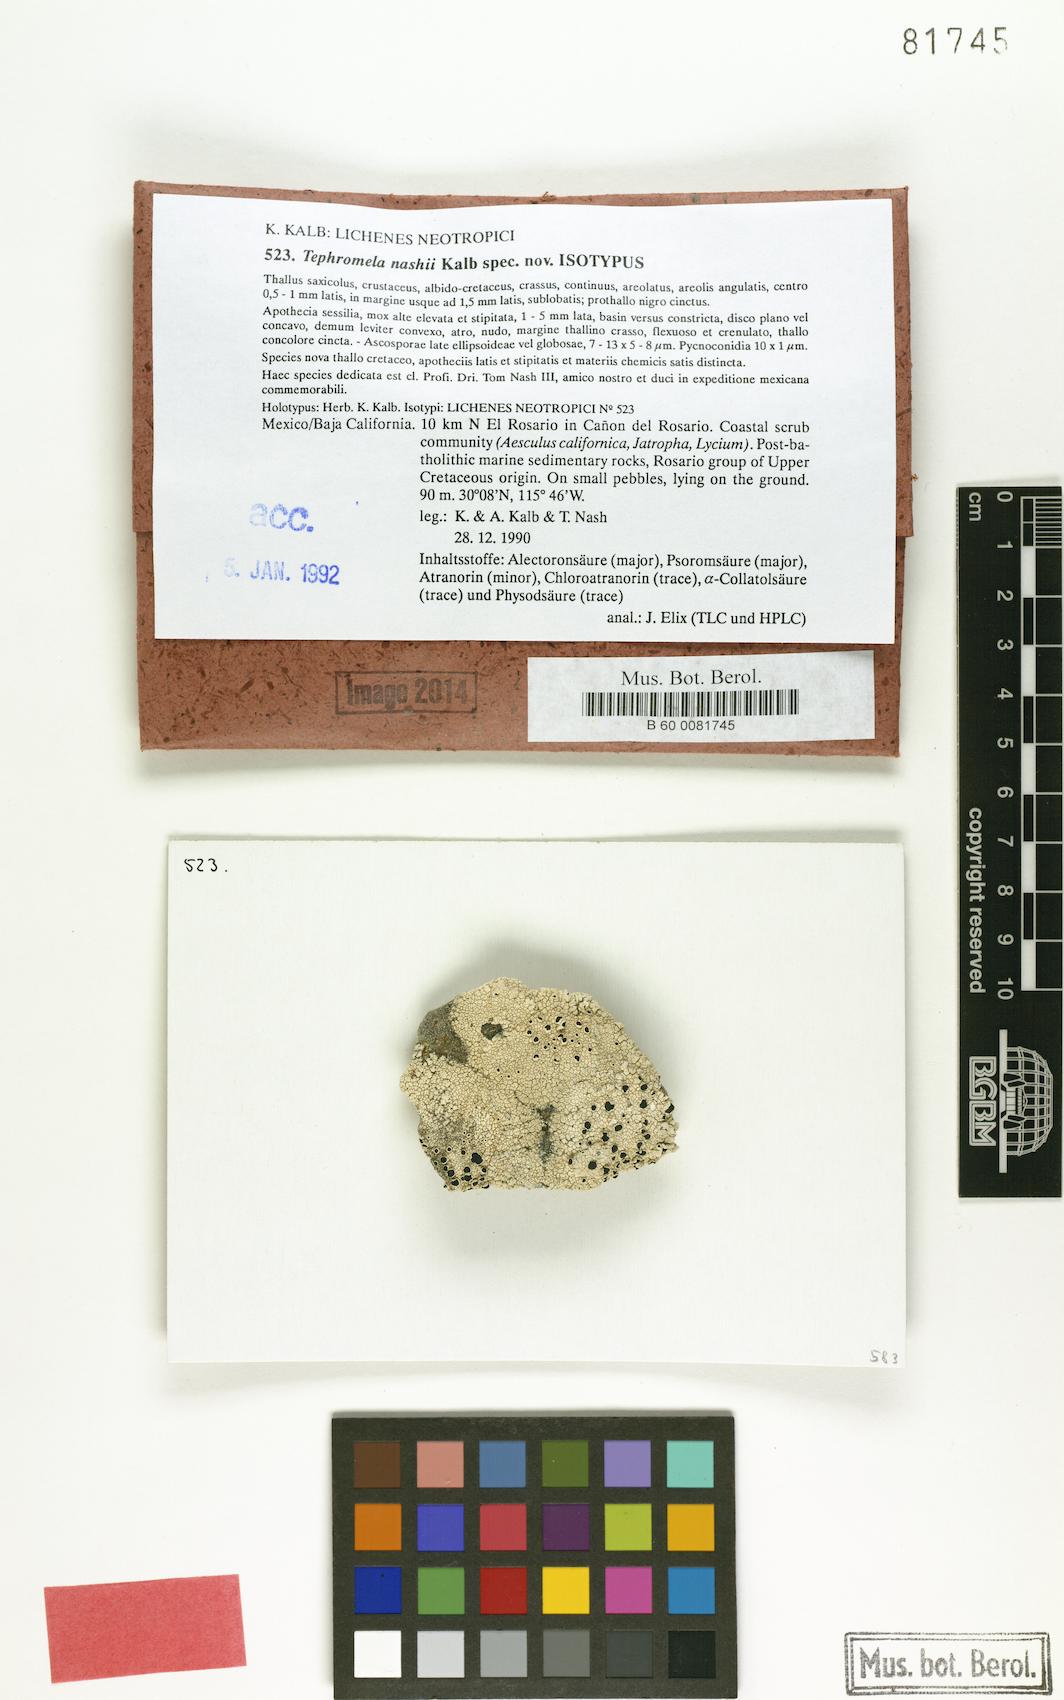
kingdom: Fungi
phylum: Ascomycota
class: Lecanoromycetes
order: Lecanorales
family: Tephromelataceae
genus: Tephromela
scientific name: Tephromela nashii
